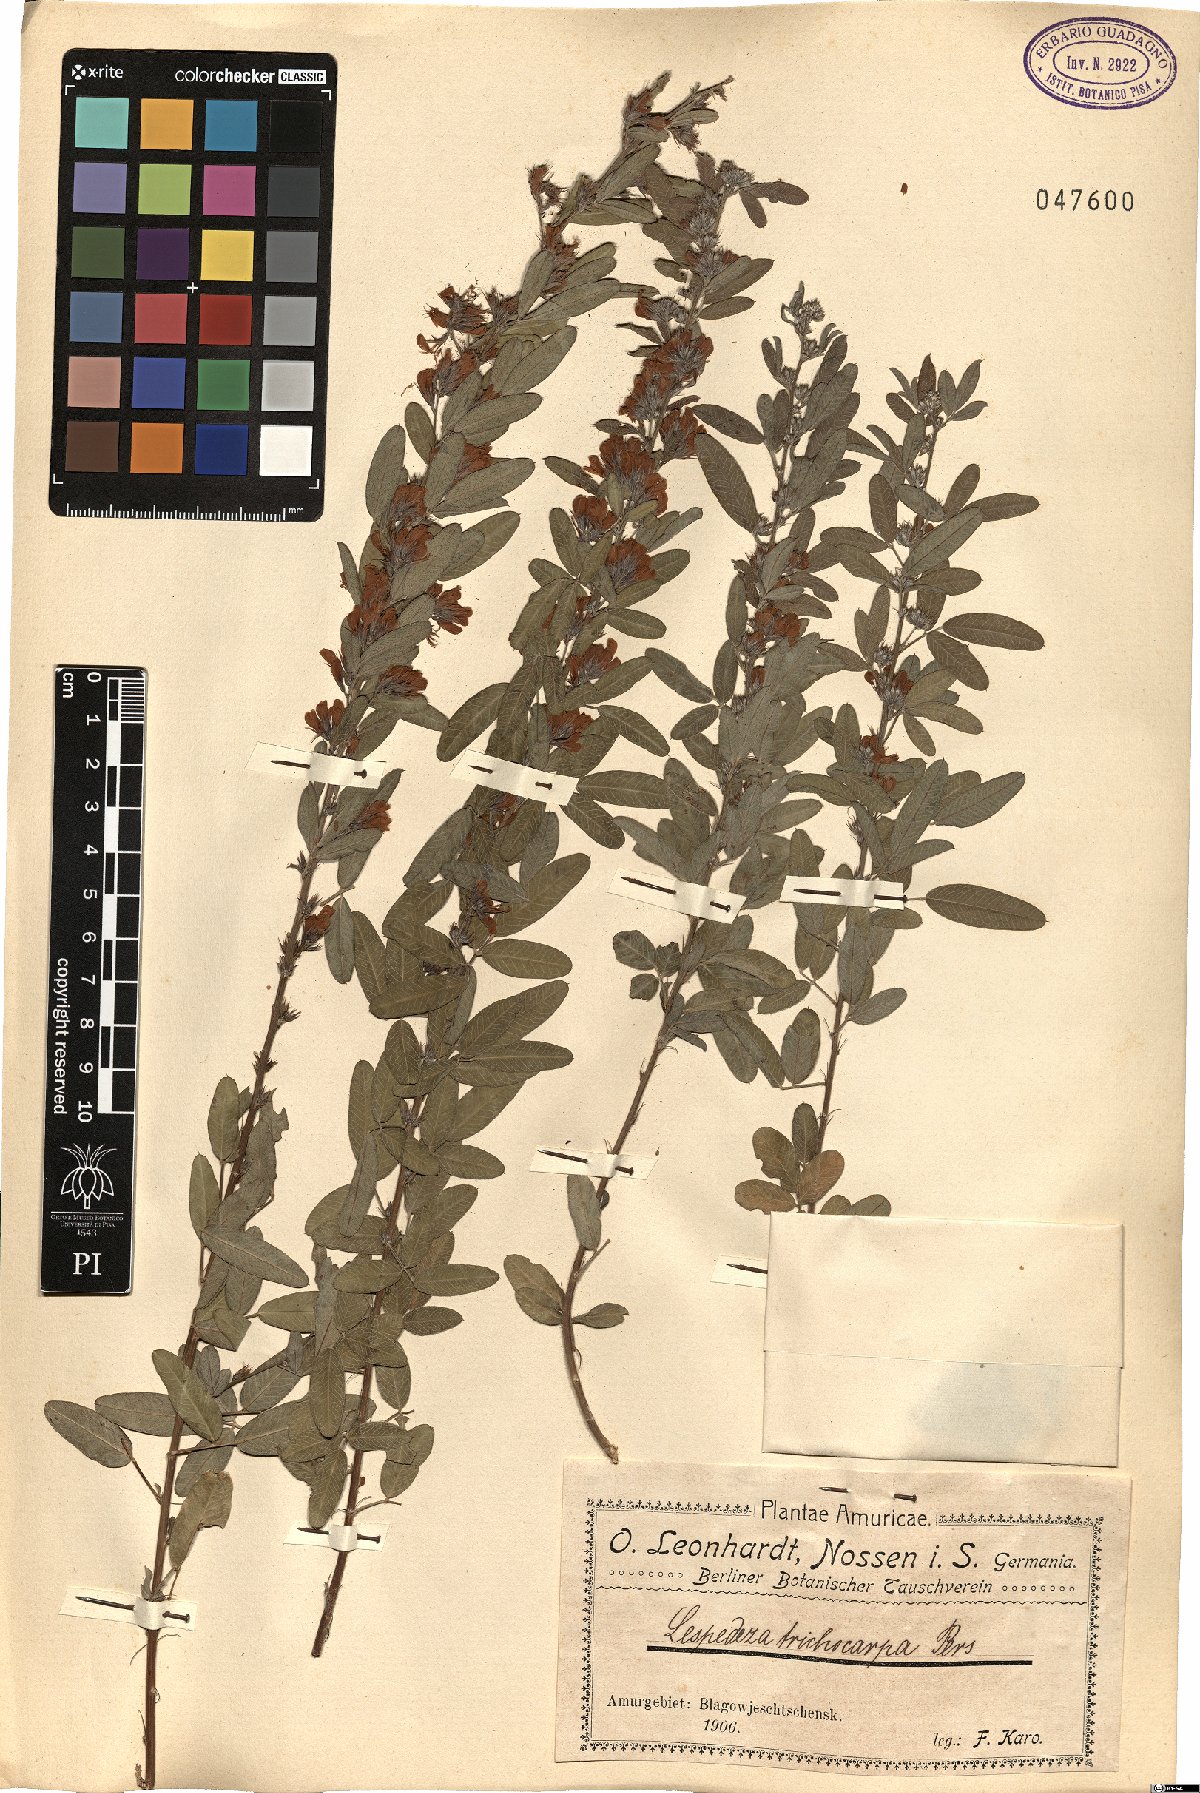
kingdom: Plantae
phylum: Tracheophyta
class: Magnoliopsida
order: Fabales
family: Fabaceae
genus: Lespedeza
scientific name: Lespedeza daurica
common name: Dahurian lespedeza
